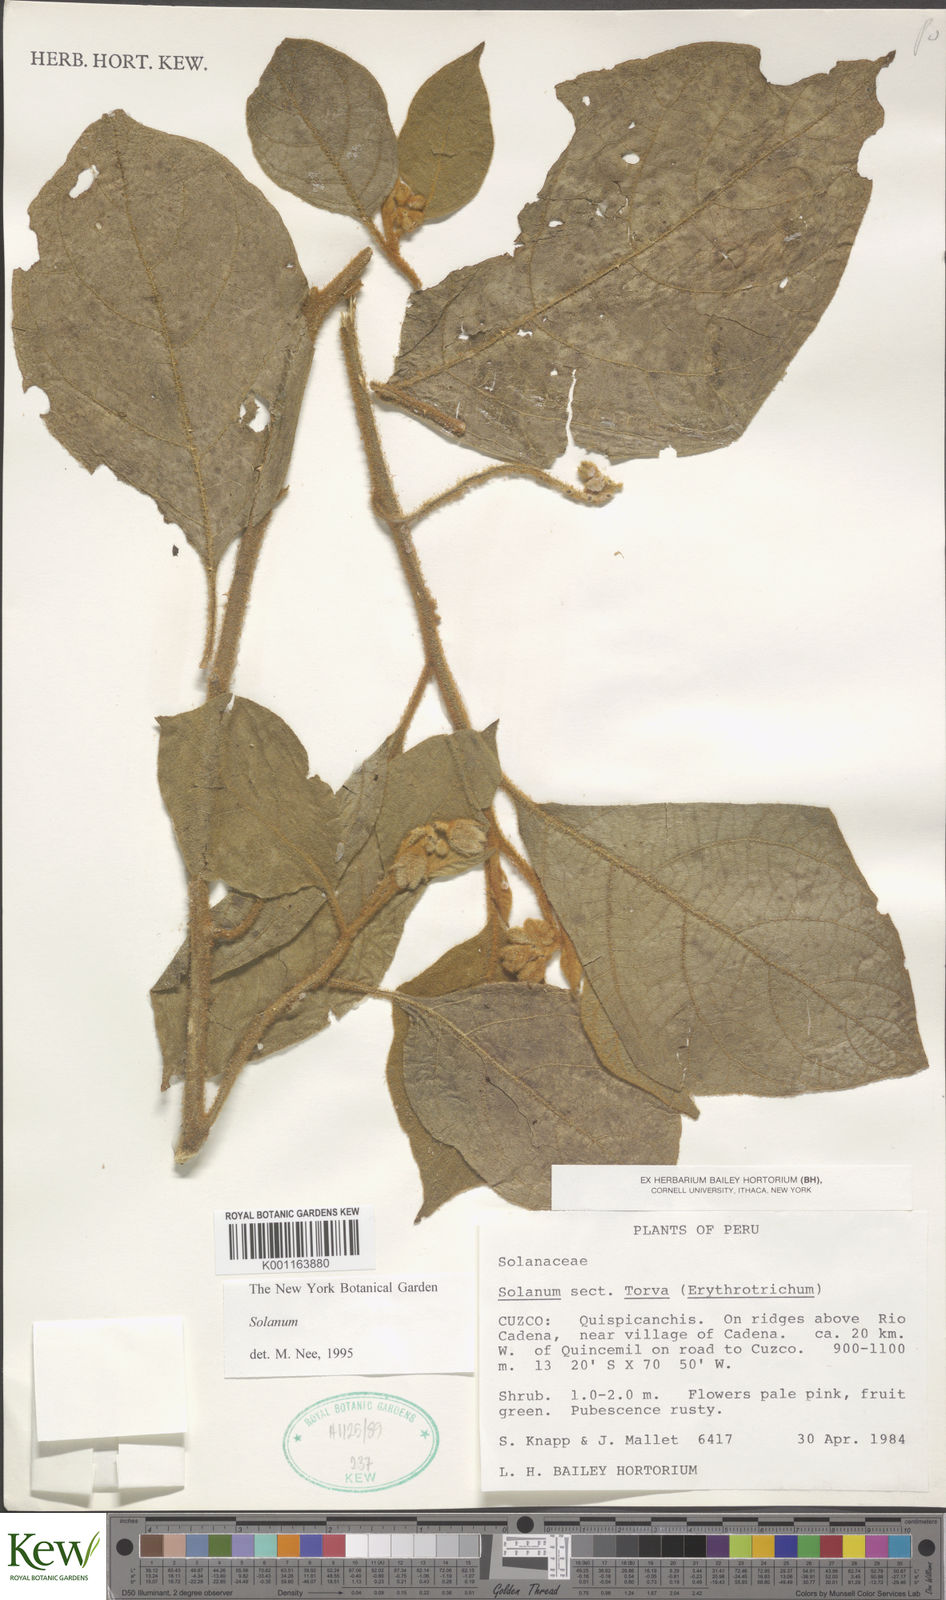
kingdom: Plantae
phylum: Tracheophyta
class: Magnoliopsida
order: Solanales
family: Solanaceae
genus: Solanum
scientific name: Solanum erythrotrichum
